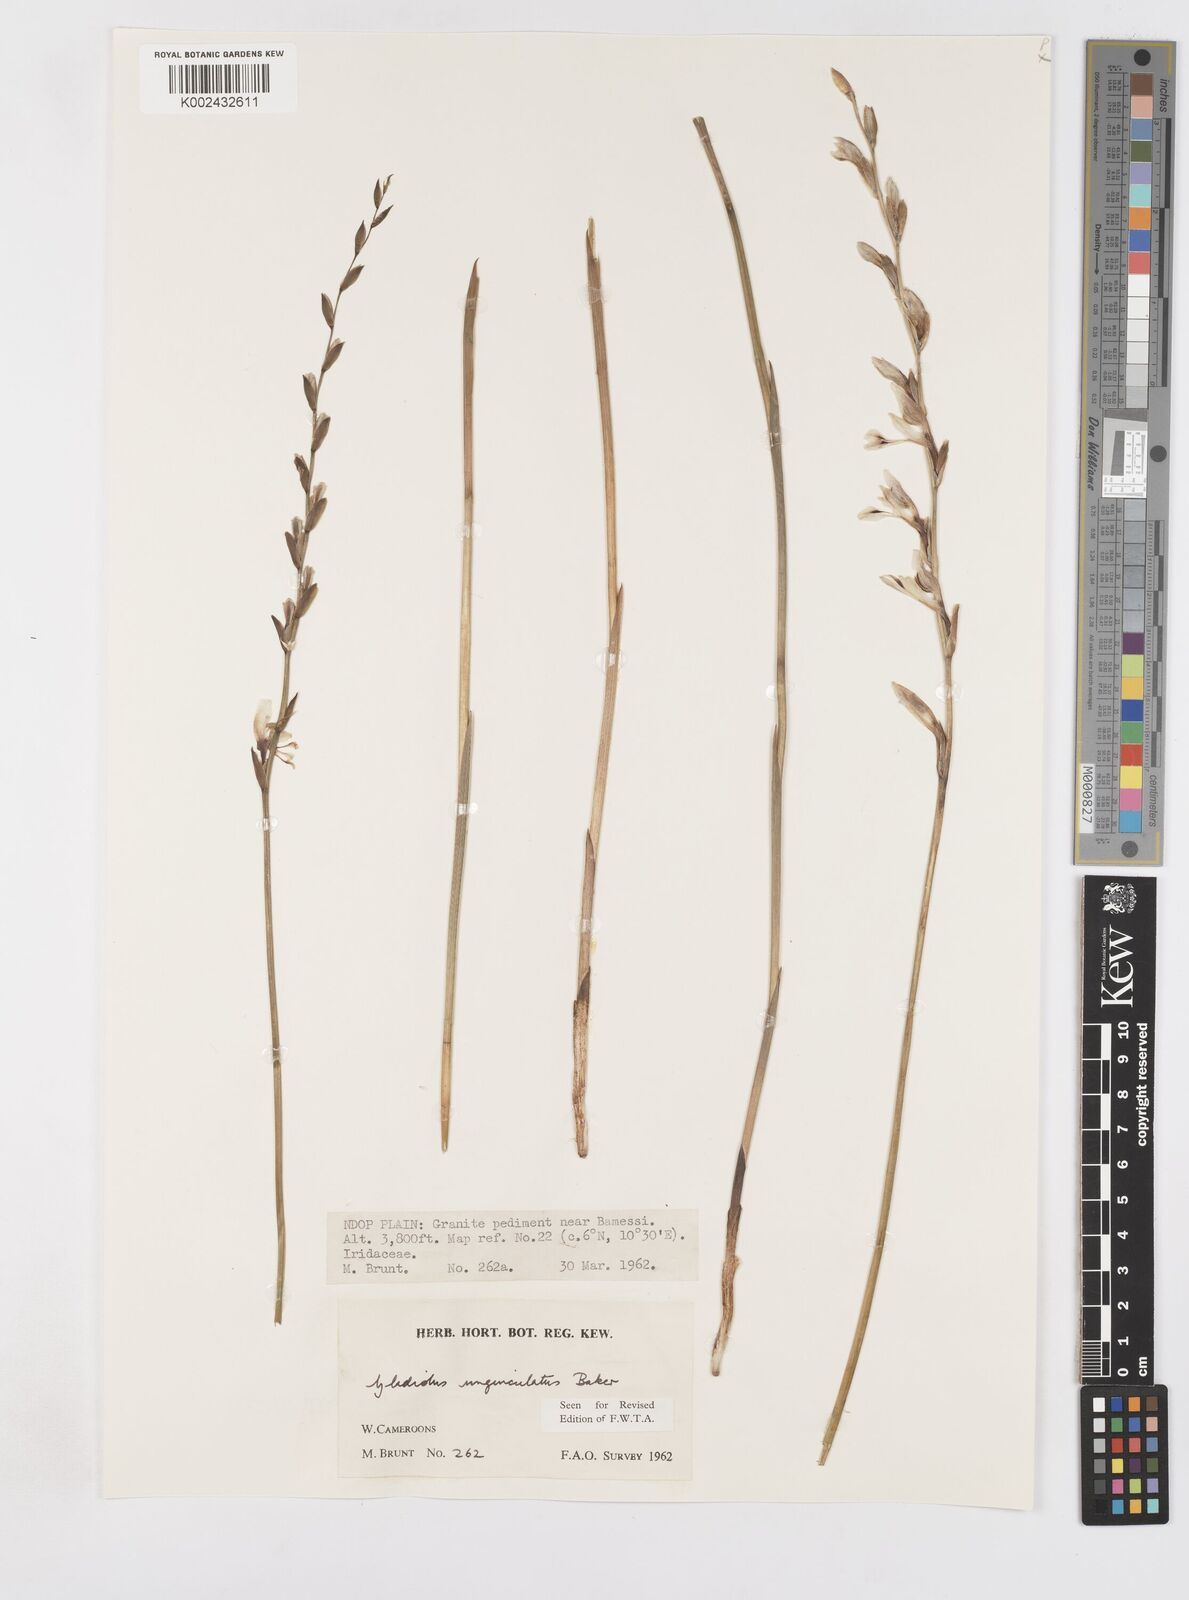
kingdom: Plantae
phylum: Tracheophyta
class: Liliopsida
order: Asparagales
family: Iridaceae
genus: Gladiolus
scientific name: Gladiolus unguiculatus
